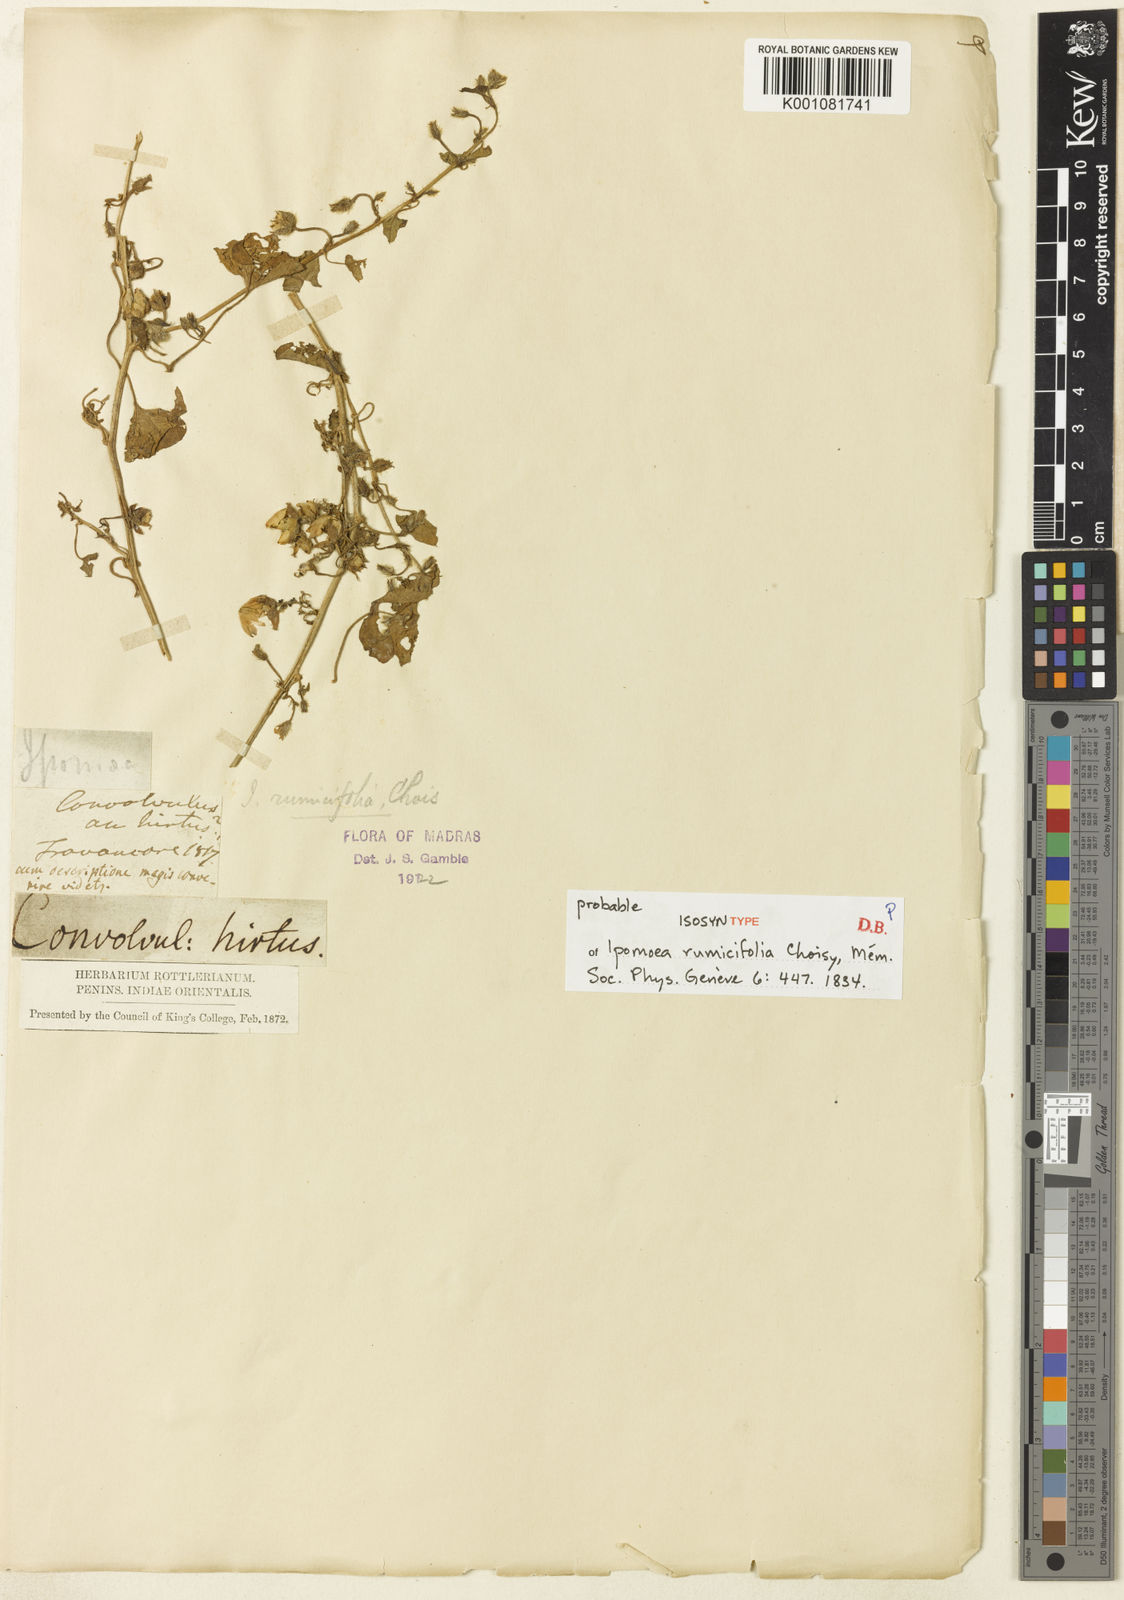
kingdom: Plantae
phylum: Tracheophyta
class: Magnoliopsida
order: Solanales
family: Convolvulaceae
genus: Ipomoea
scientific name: Ipomoea verticillata
